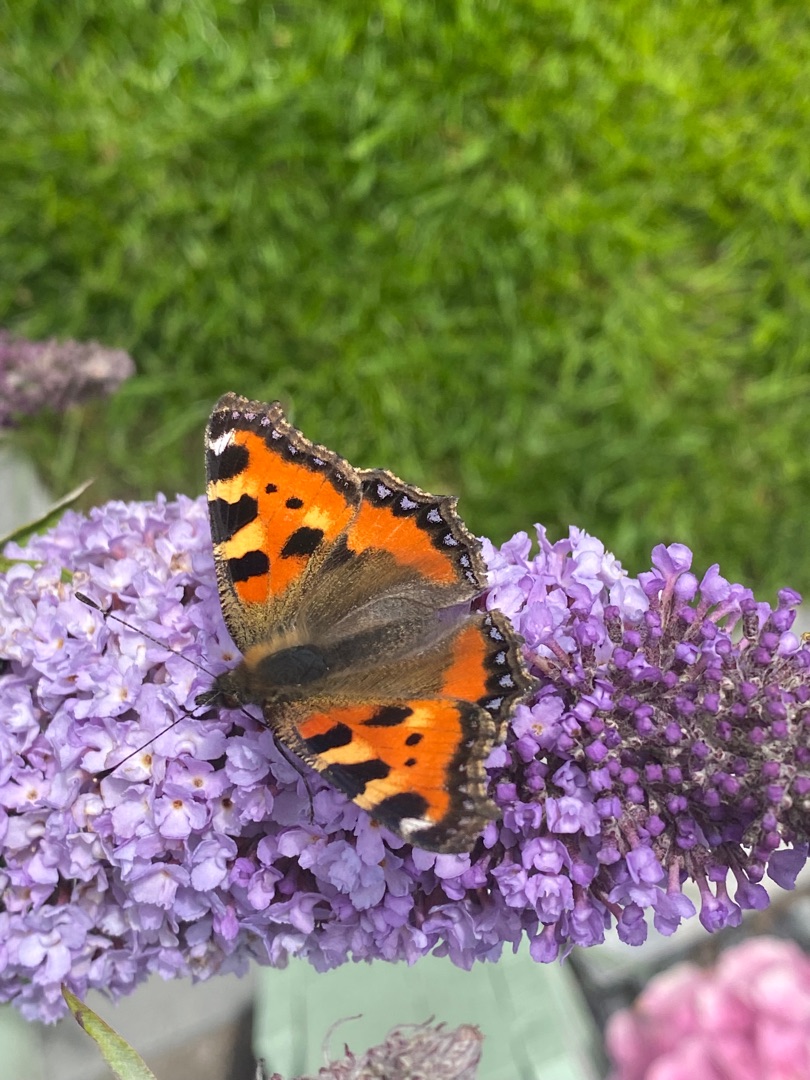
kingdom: Animalia
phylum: Arthropoda
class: Insecta
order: Lepidoptera
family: Nymphalidae
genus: Aglais
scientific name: Aglais urticae
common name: Nældens takvinge
